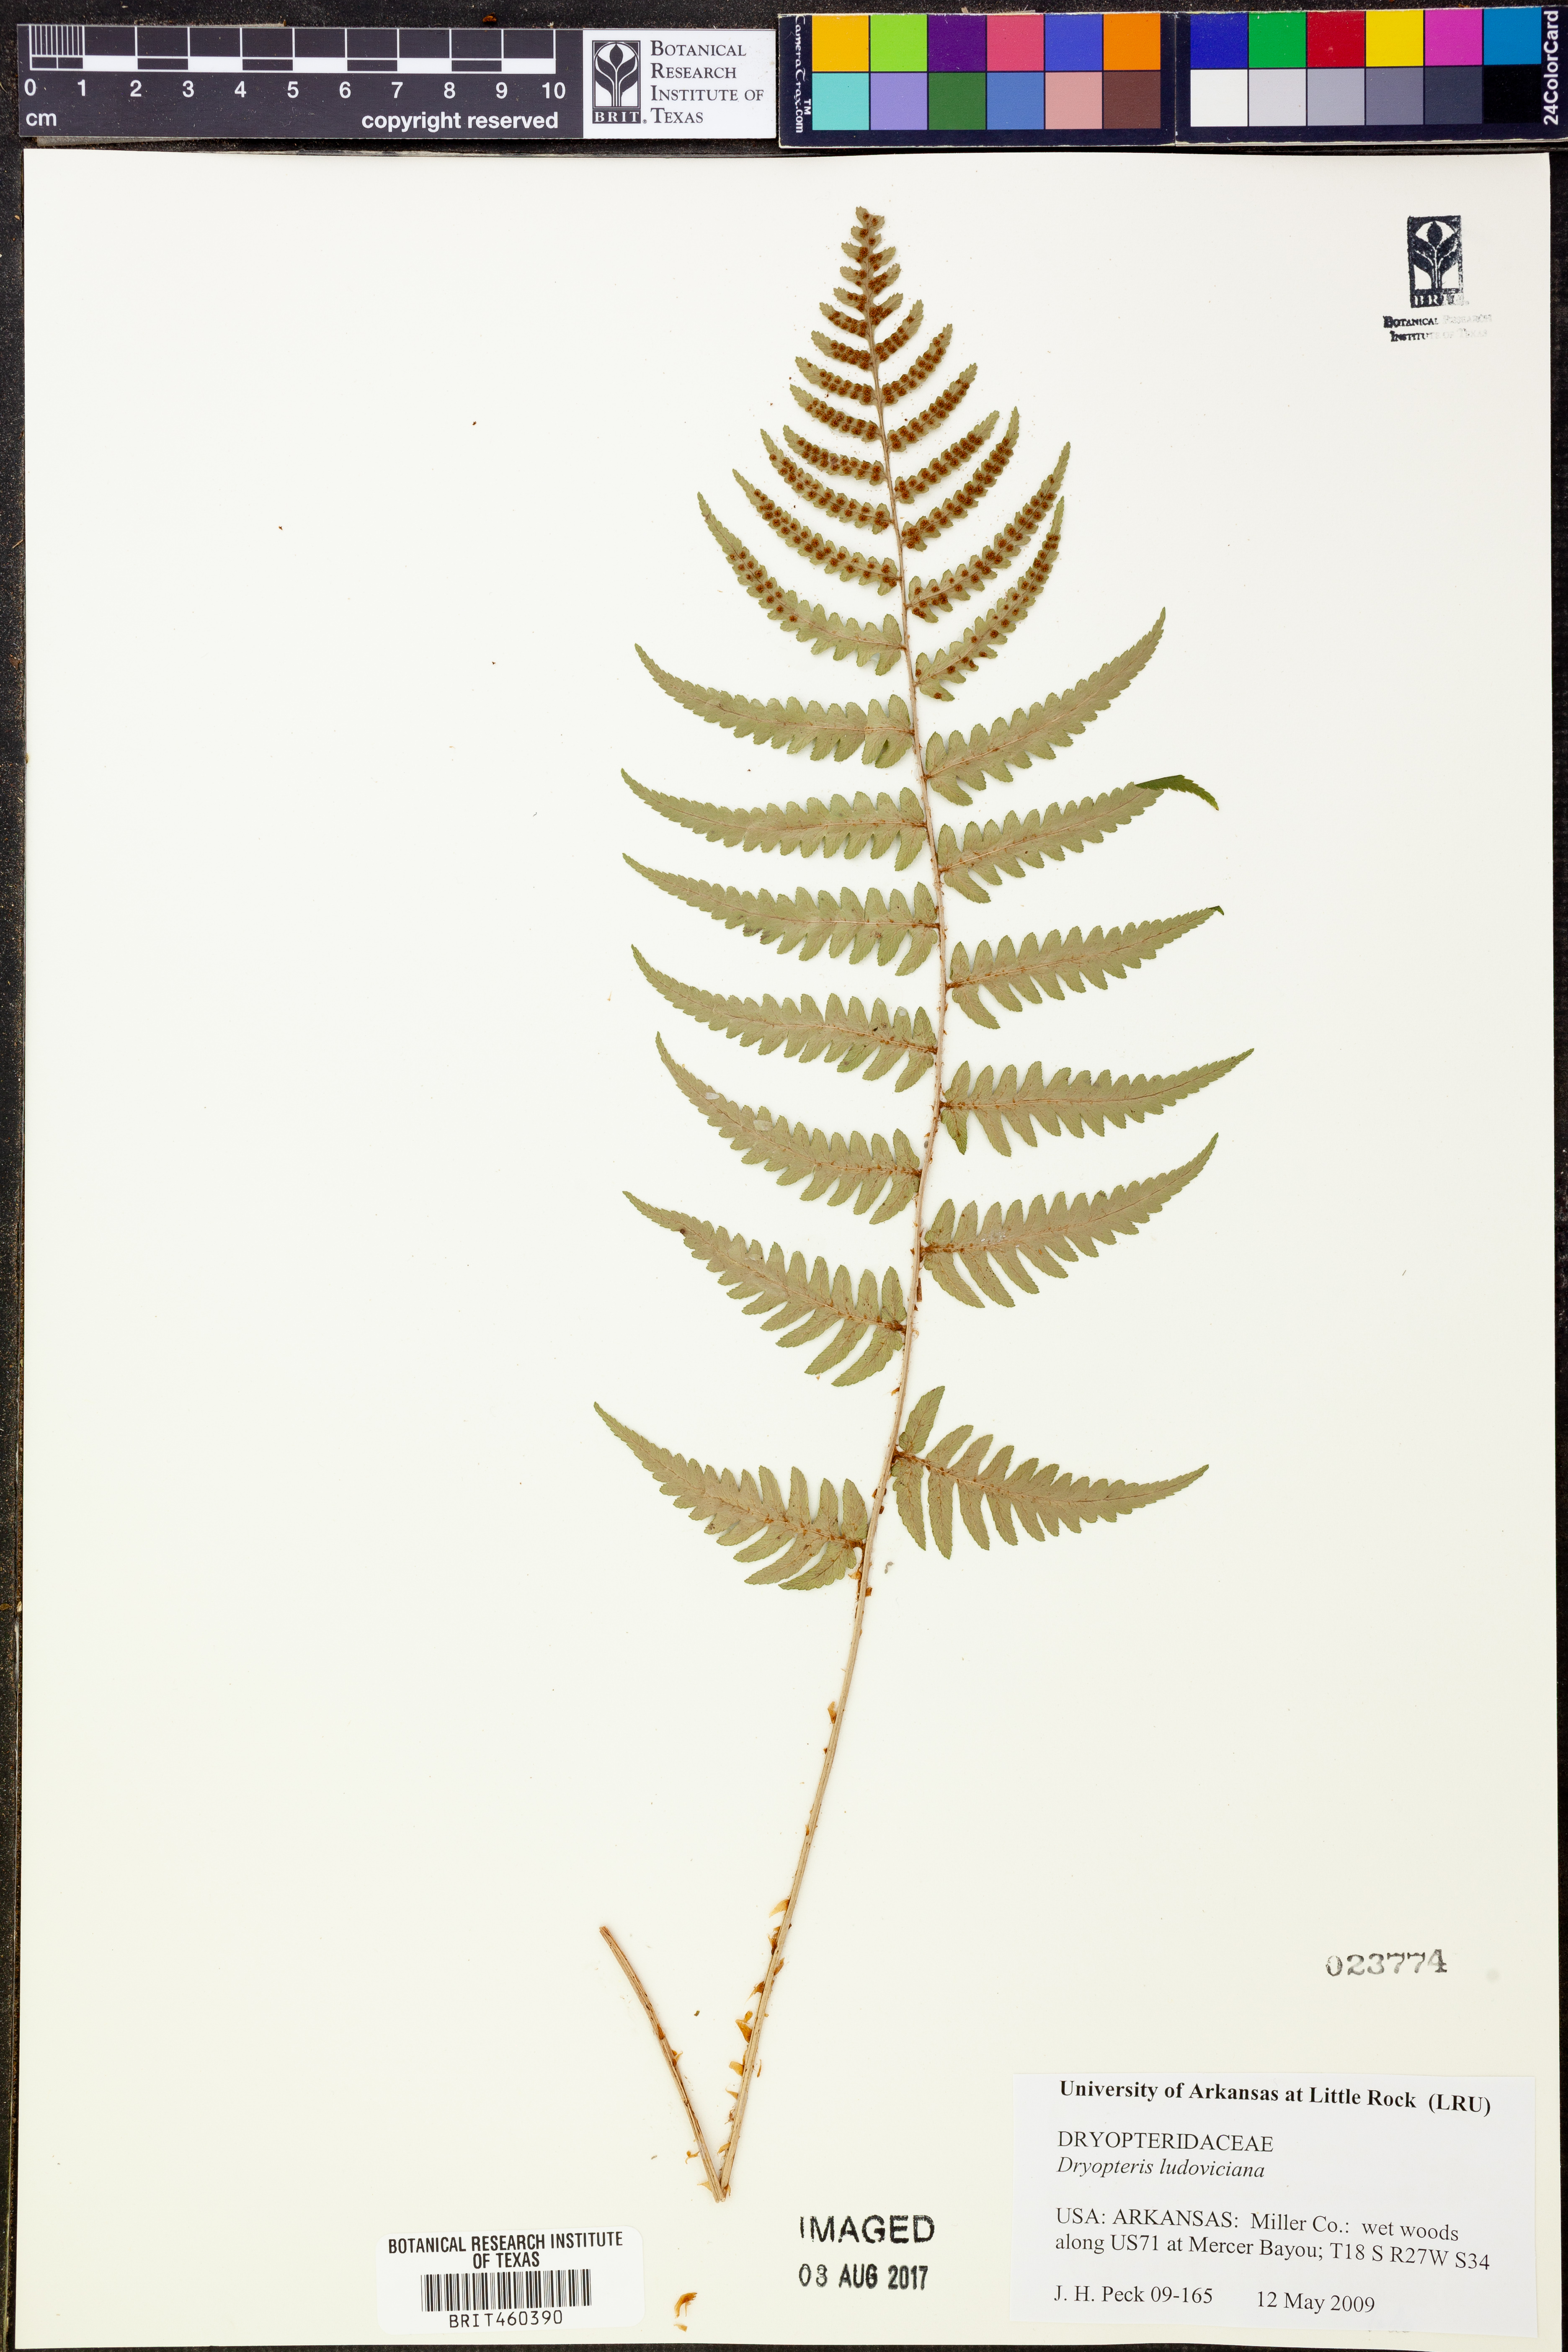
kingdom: Plantae
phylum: Tracheophyta
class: Polypodiopsida
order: Polypodiales
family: Dryopteridaceae
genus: Dryopteris
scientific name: Dryopteris ludoviciana
